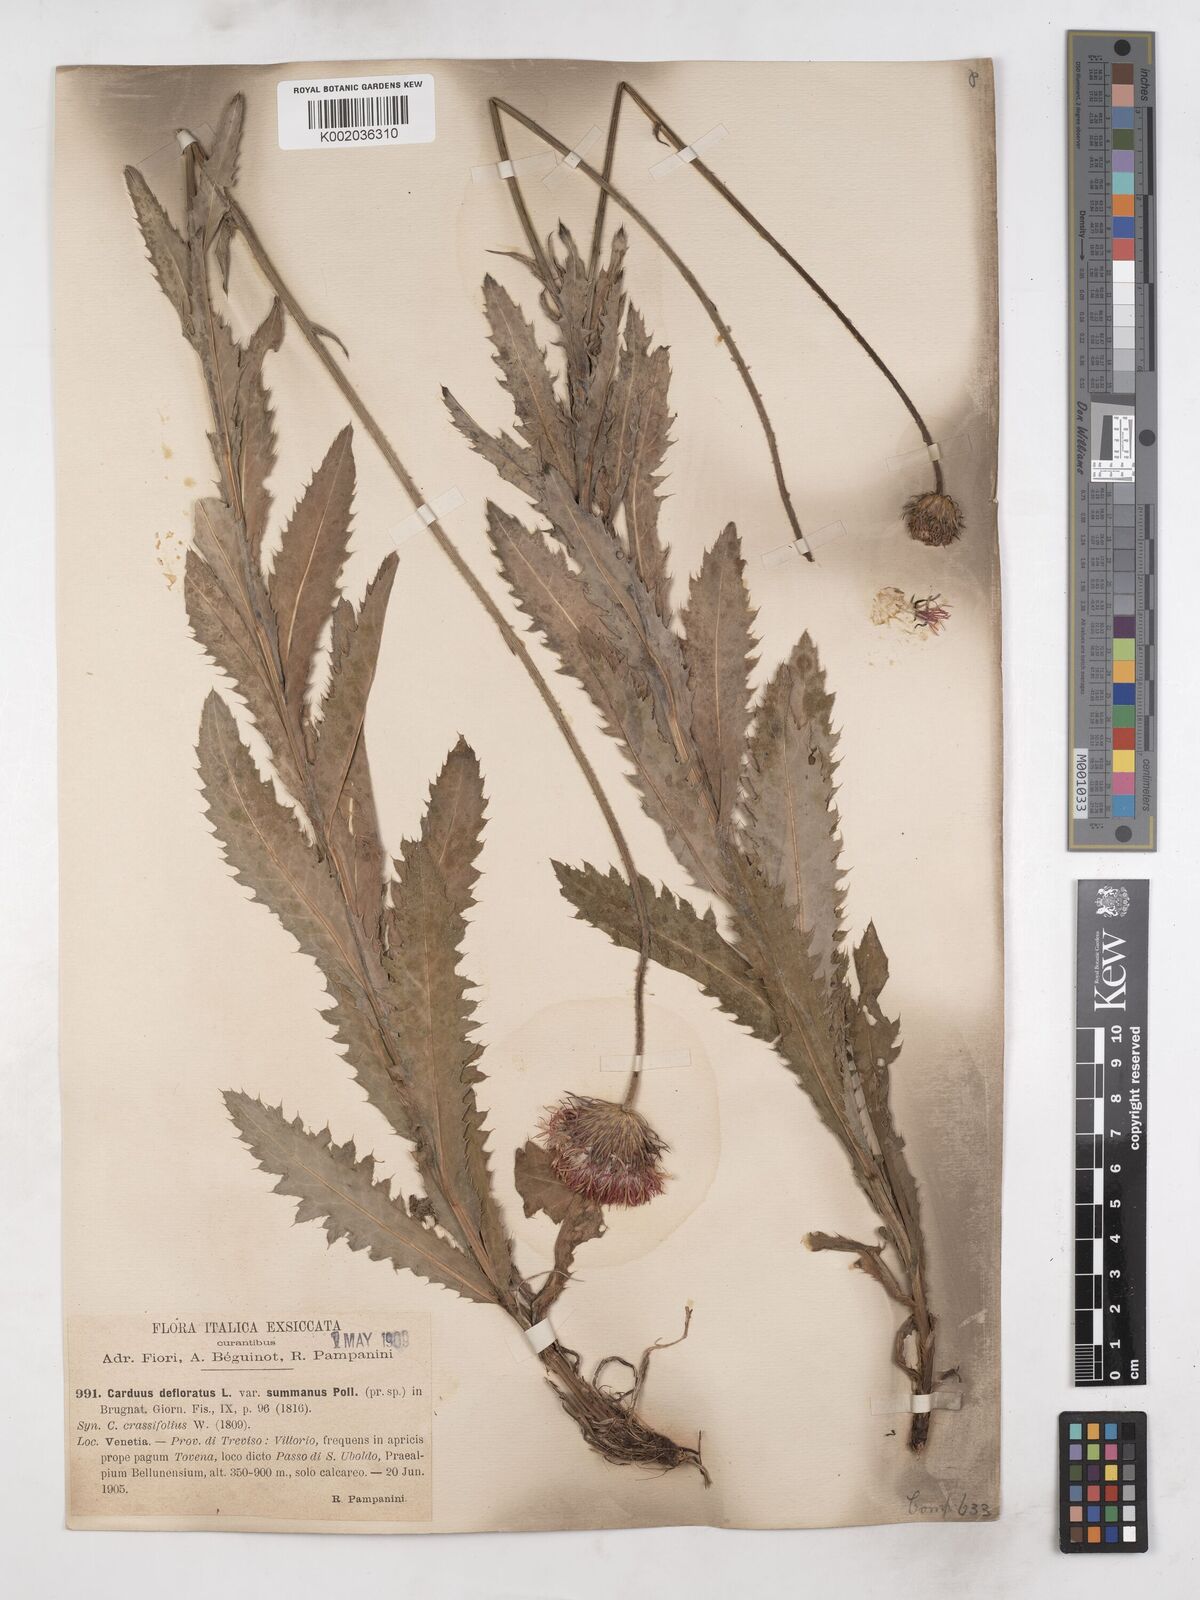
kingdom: Plantae
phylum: Tracheophyta
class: Magnoliopsida
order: Asterales
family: Asteraceae
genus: Carduus
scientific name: Carduus defloratus
